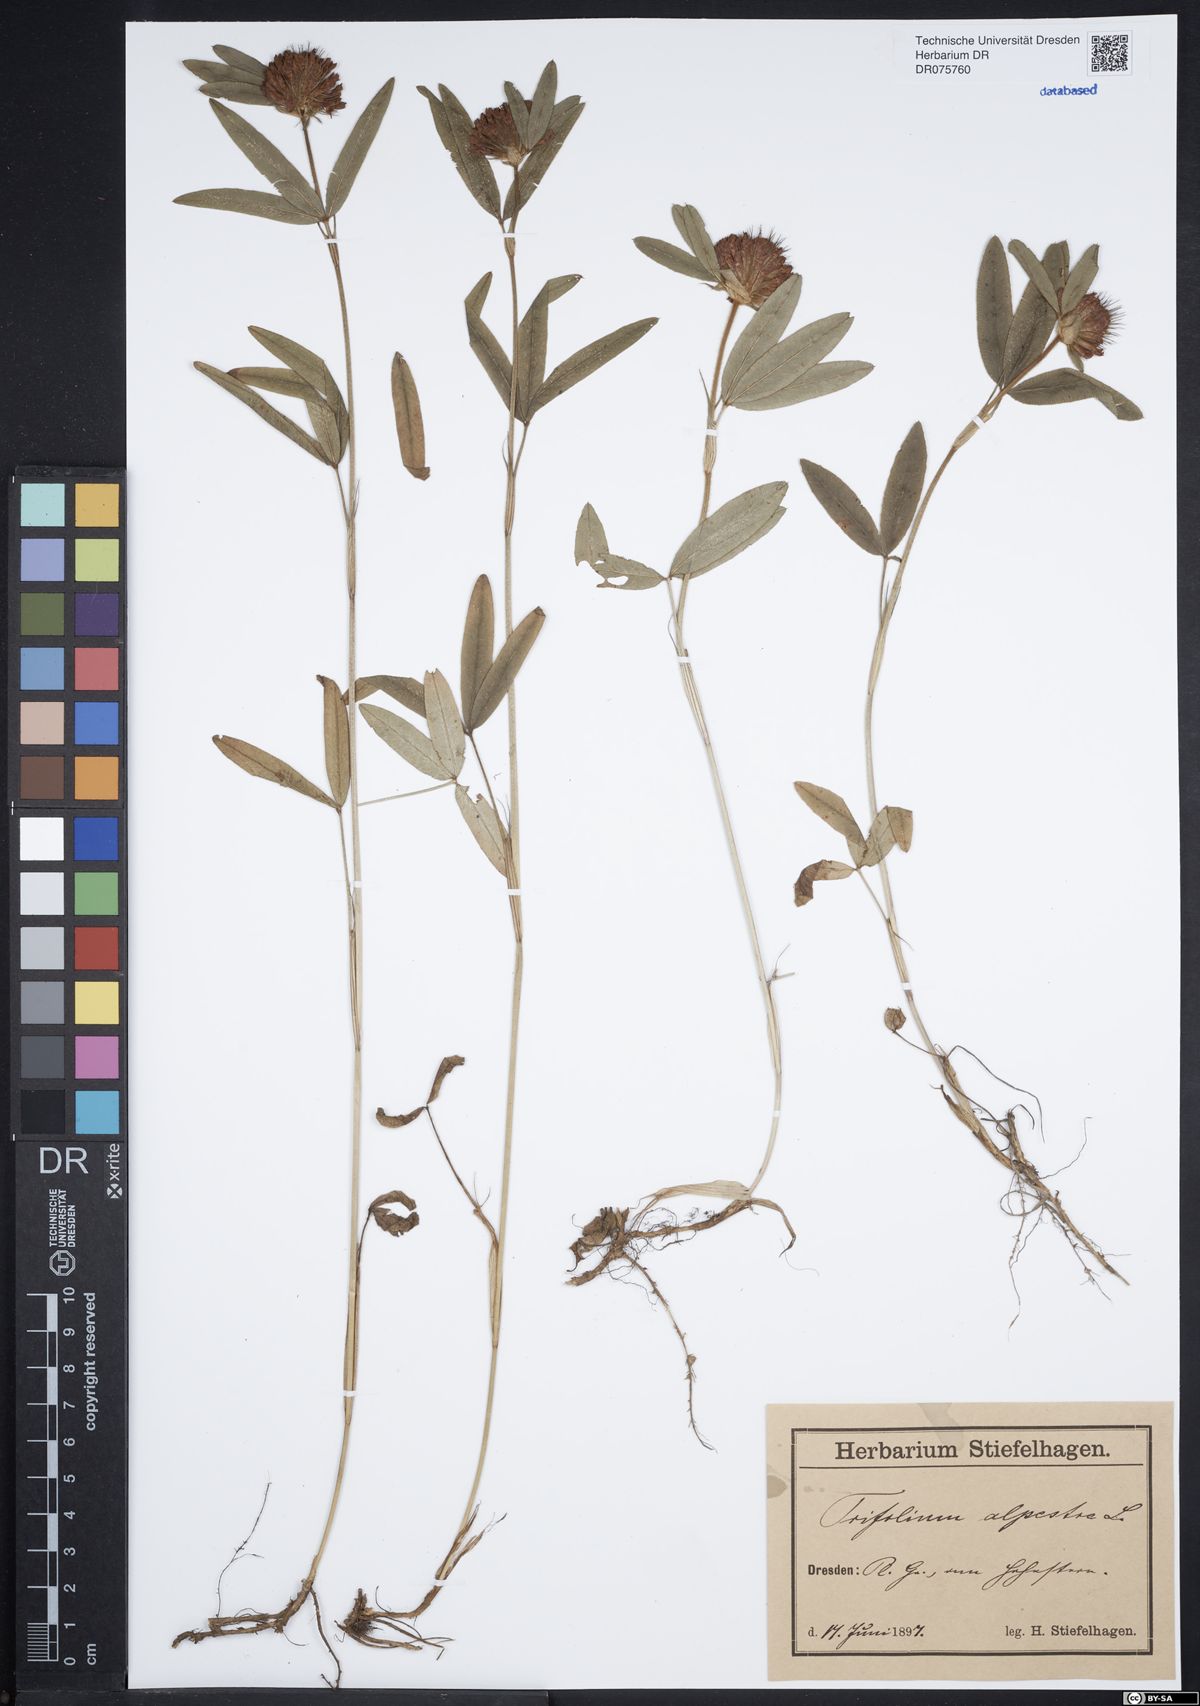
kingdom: Plantae
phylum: Tracheophyta
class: Magnoliopsida
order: Fabales
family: Fabaceae
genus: Trifolium
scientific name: Trifolium alpestre
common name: Owl-head clover
